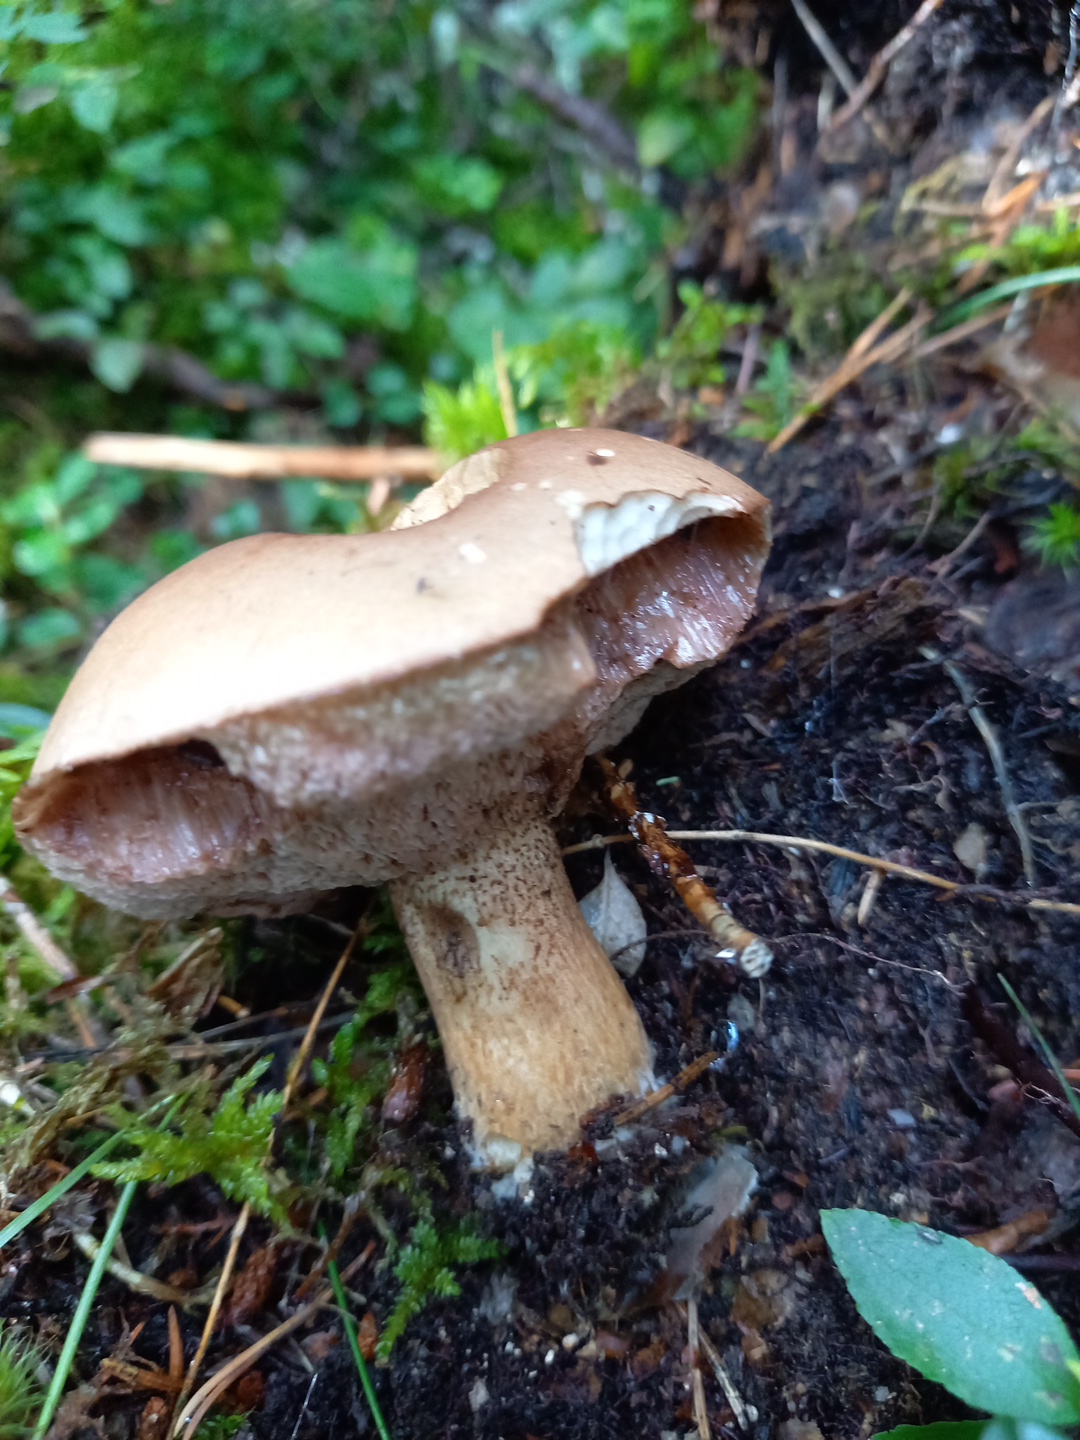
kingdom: Fungi
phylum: Basidiomycota
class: Agaricomycetes
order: Boletales
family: Boletaceae
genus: Tylopilus
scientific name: Tylopilus felleus
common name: galderørhat
